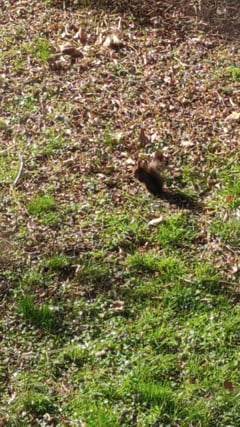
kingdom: Animalia
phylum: Chordata
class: Mammalia
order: Rodentia
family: Sciuridae
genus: Sciurus
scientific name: Sciurus vulgaris
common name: Eurasian red squirrel
